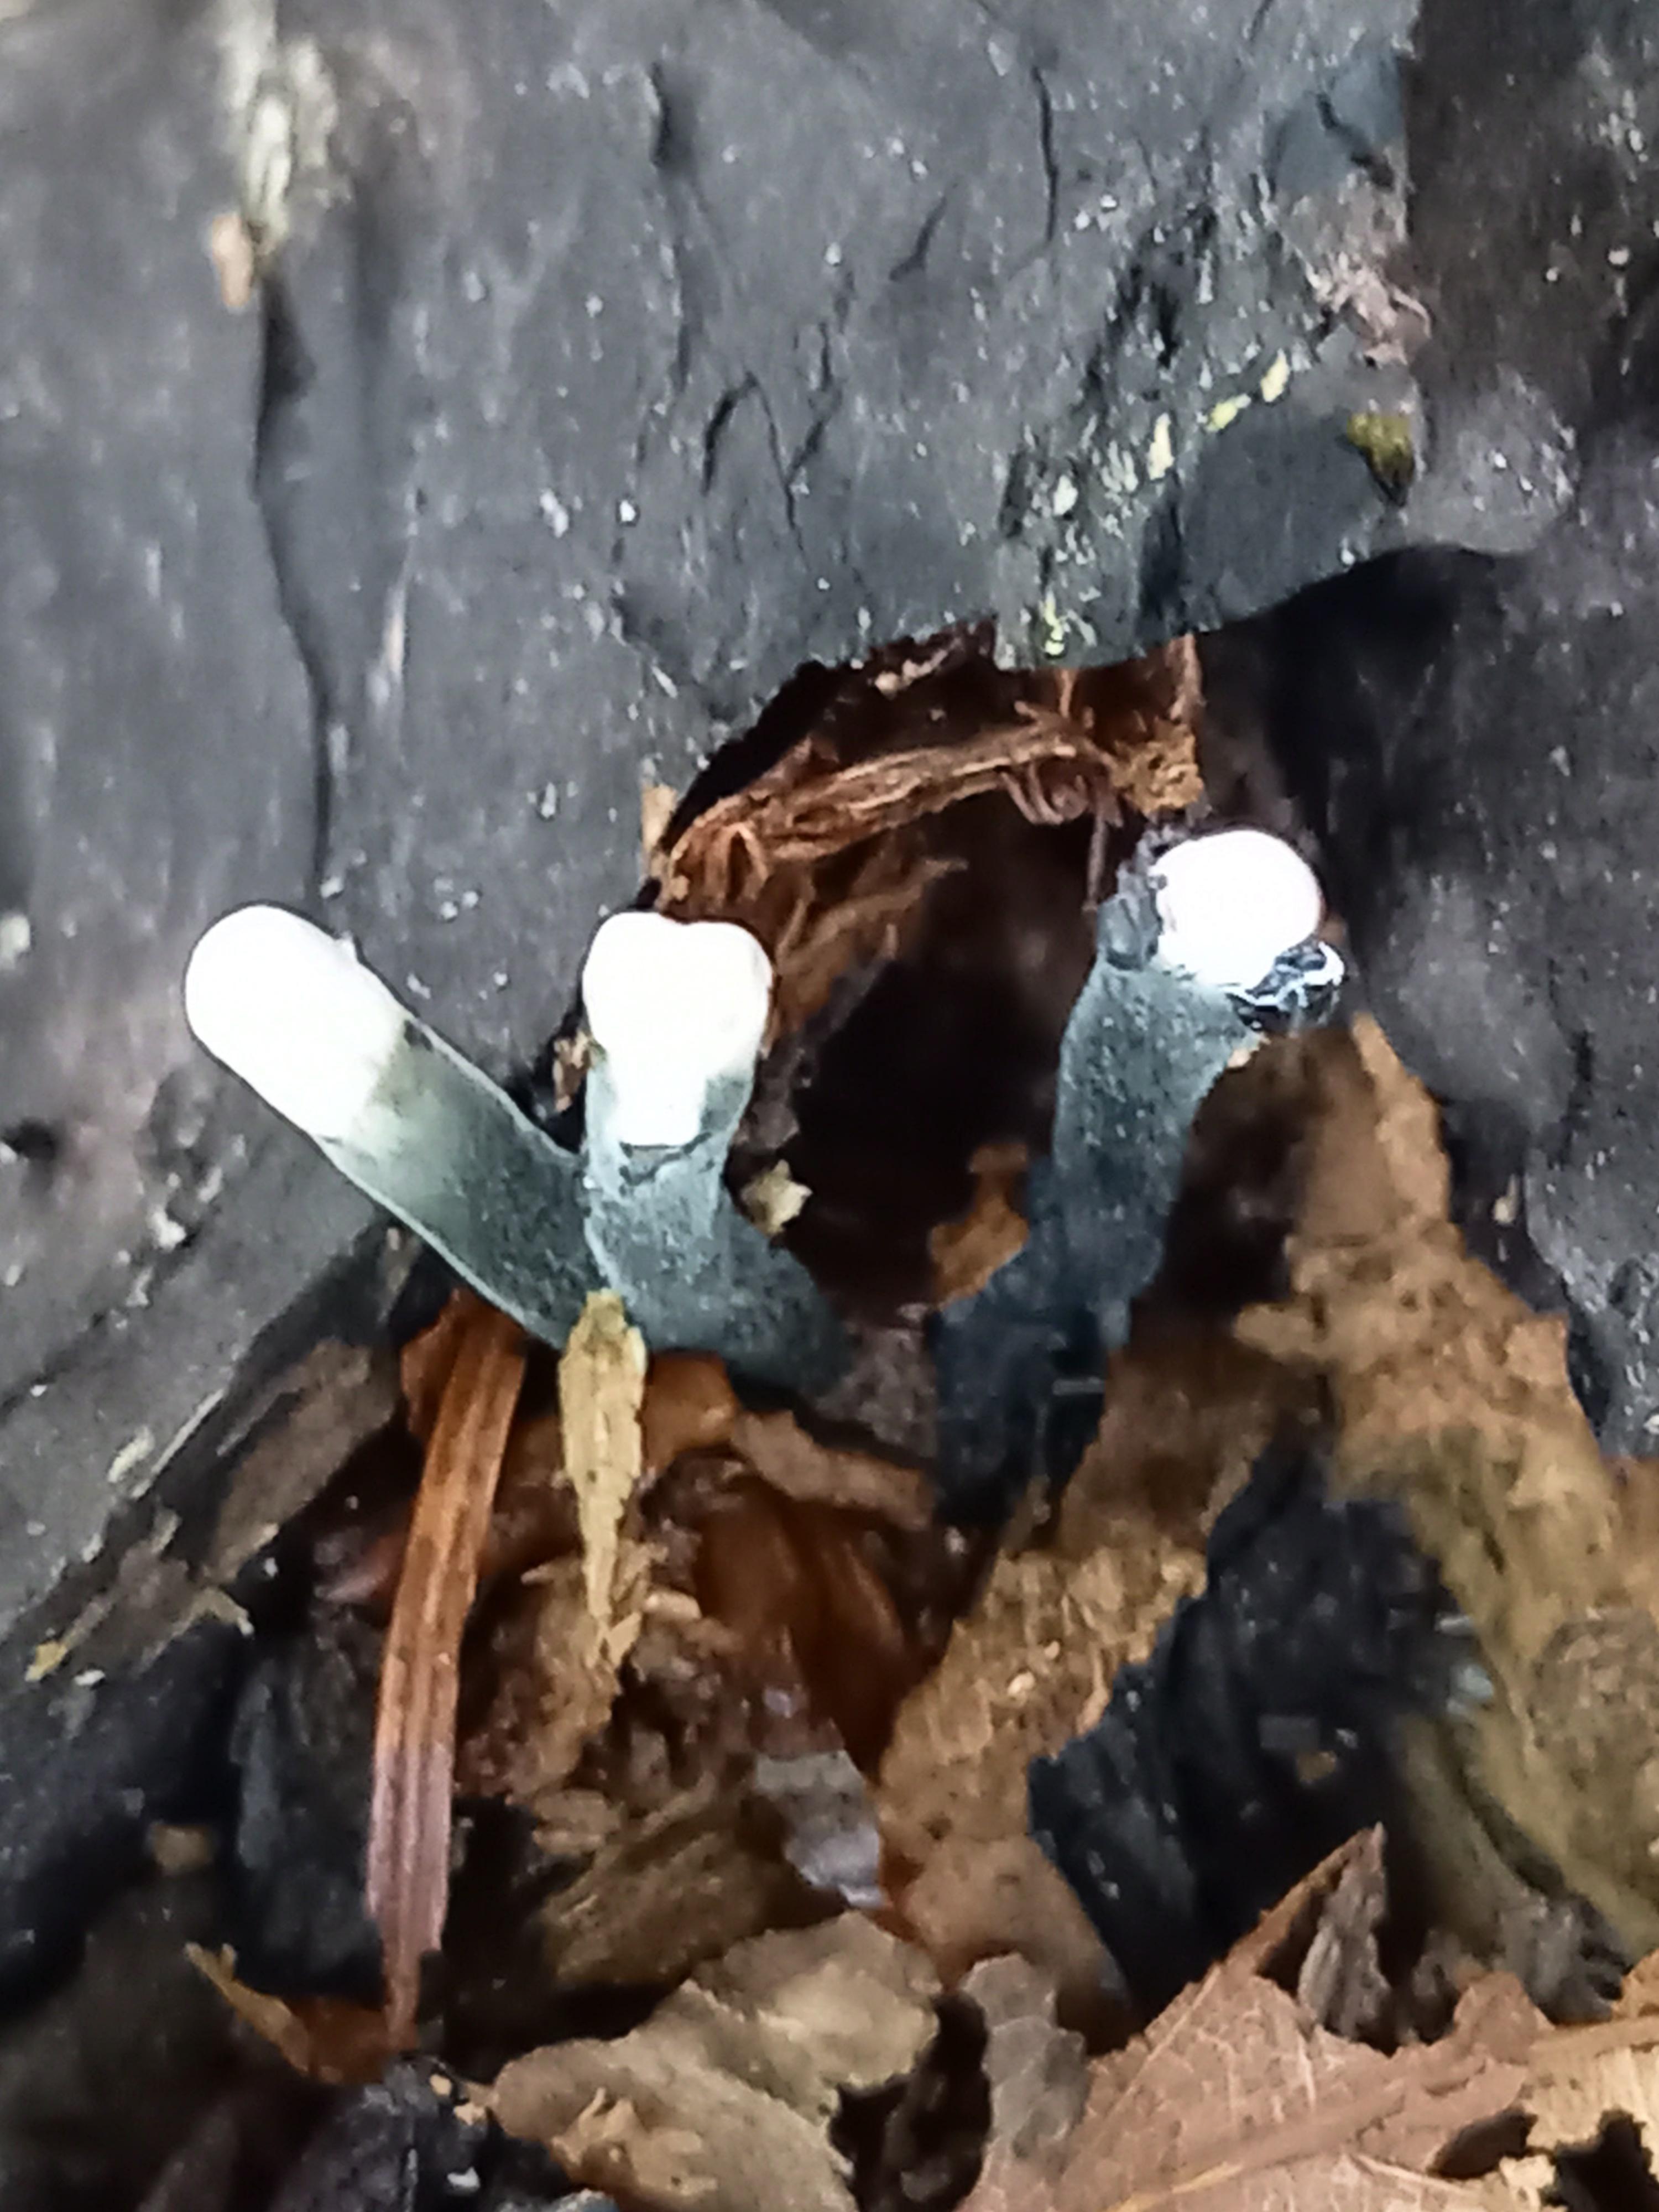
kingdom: Fungi
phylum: Ascomycota
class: Sordariomycetes
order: Xylariales
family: Xylariaceae
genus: Xylaria
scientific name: Xylaria
